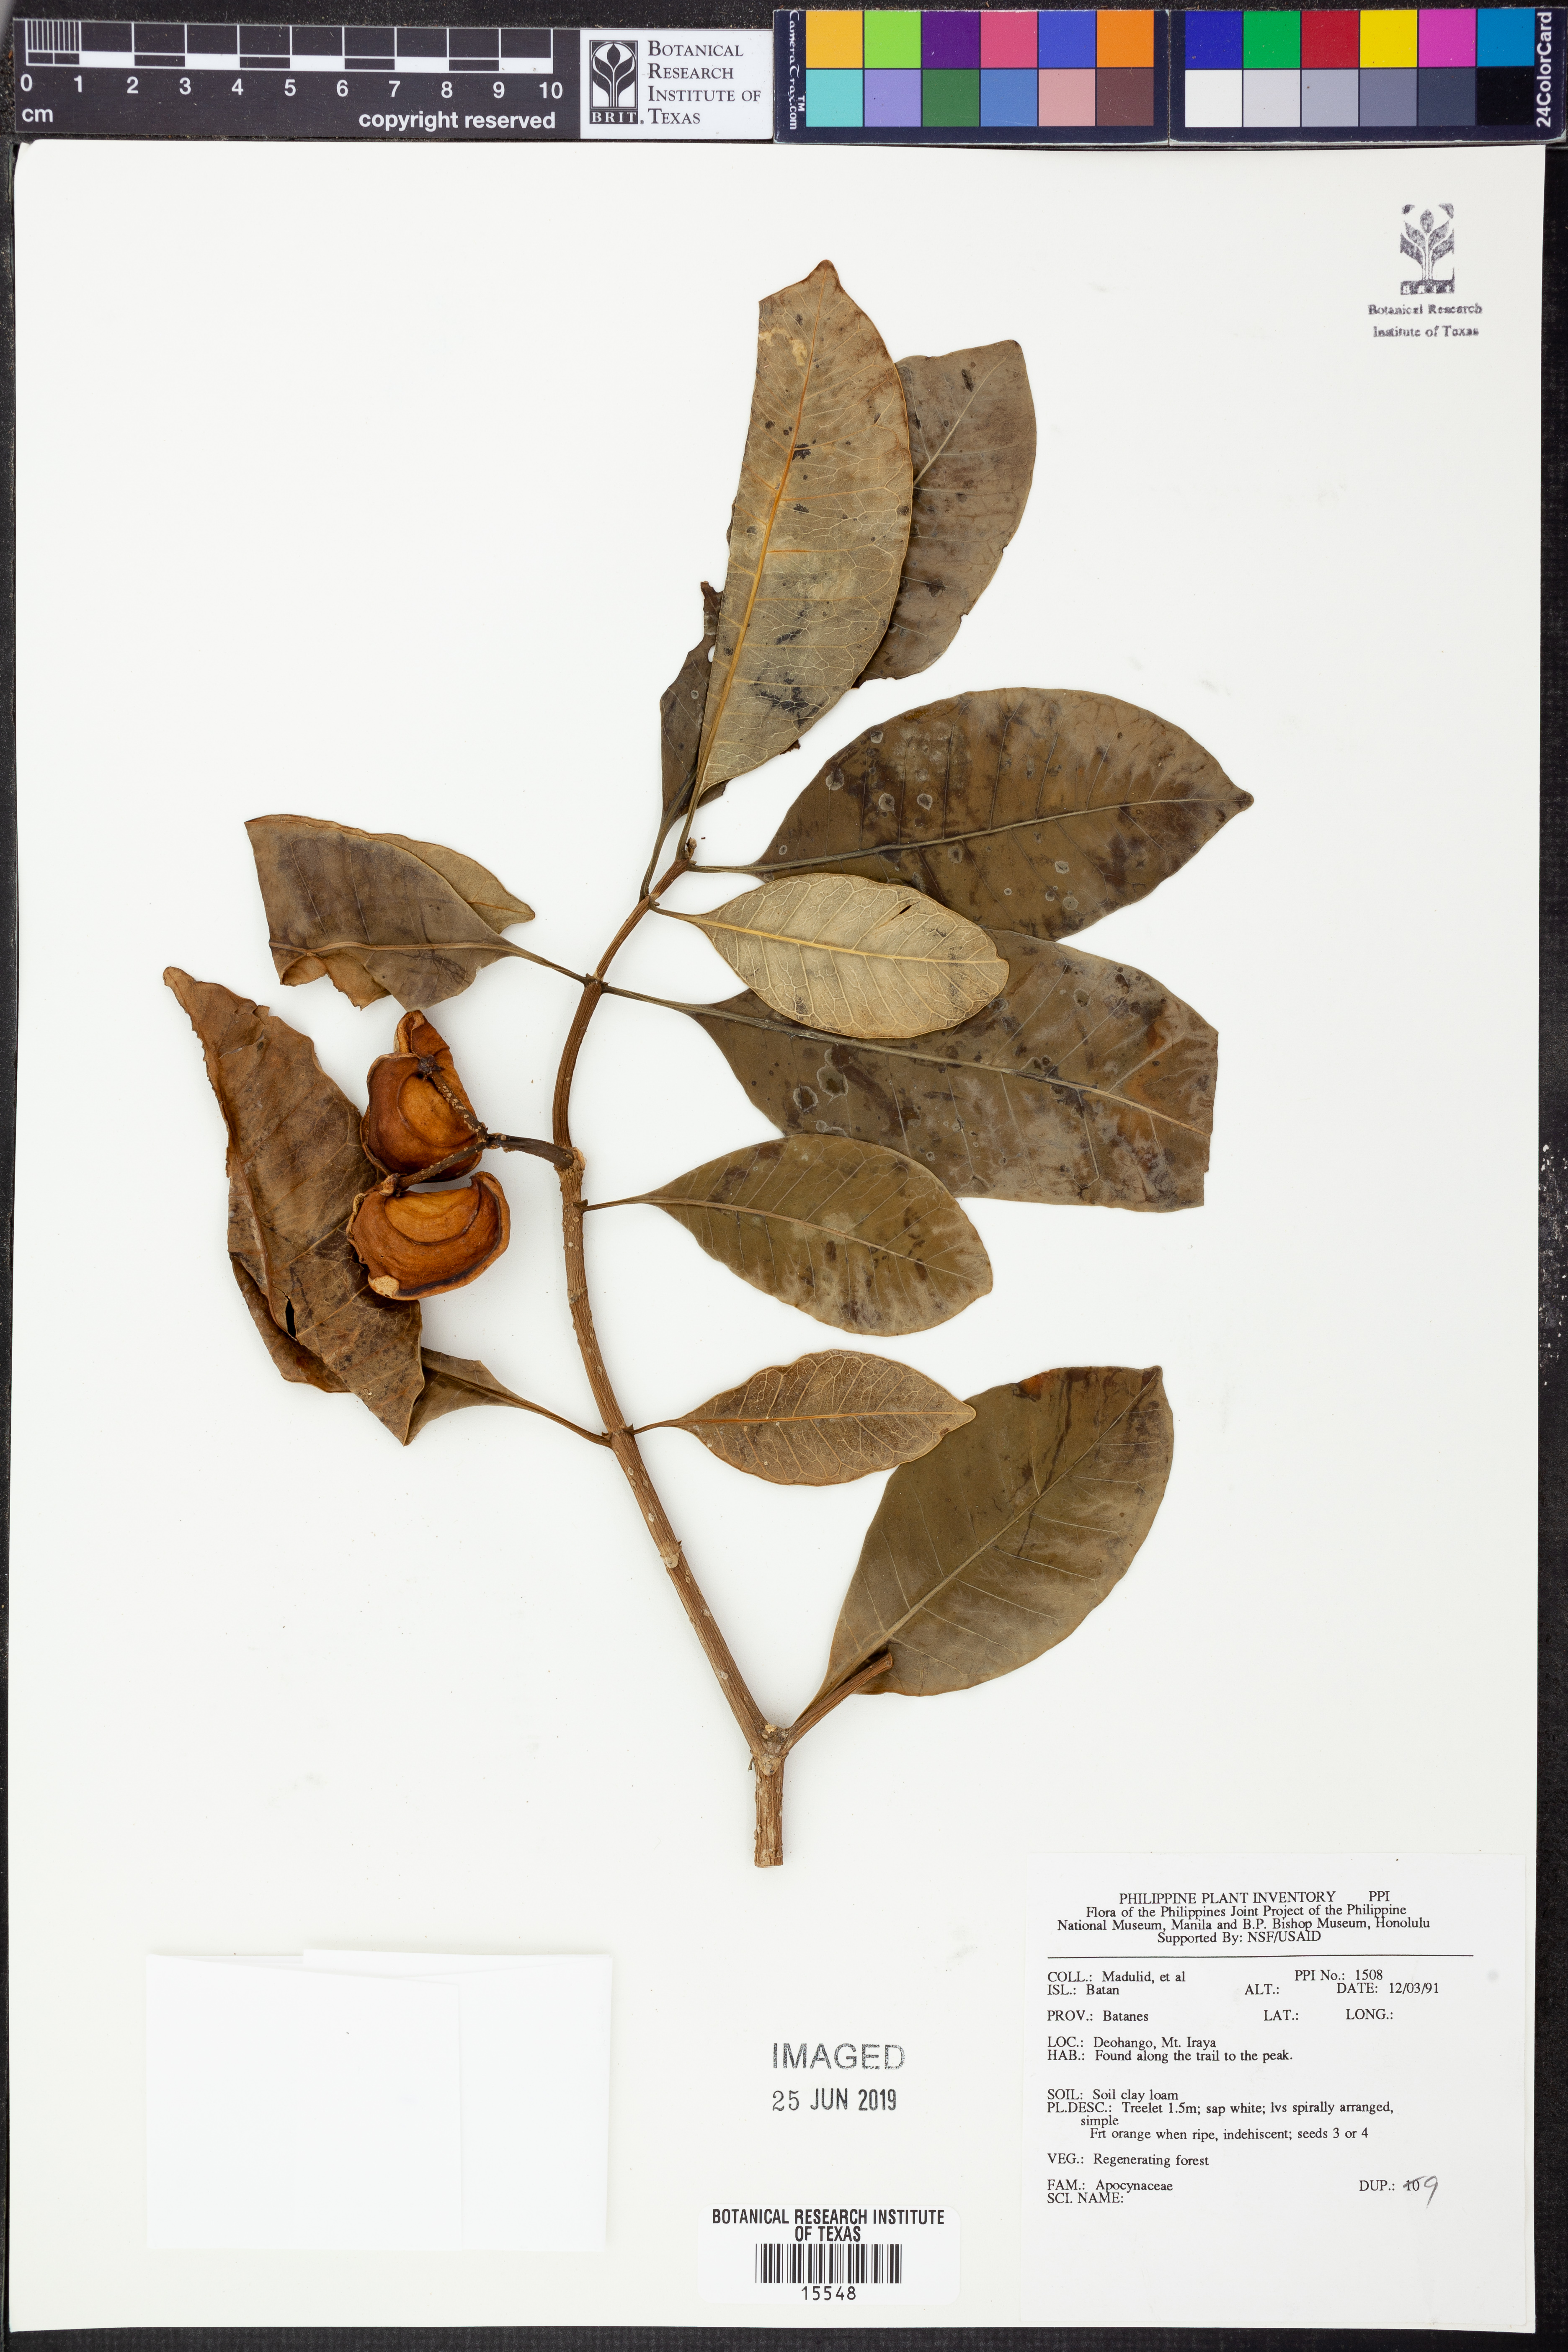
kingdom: Plantae
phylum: Tracheophyta
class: Magnoliopsida
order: Gentianales
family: Apocynaceae
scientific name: Apocynaceae
